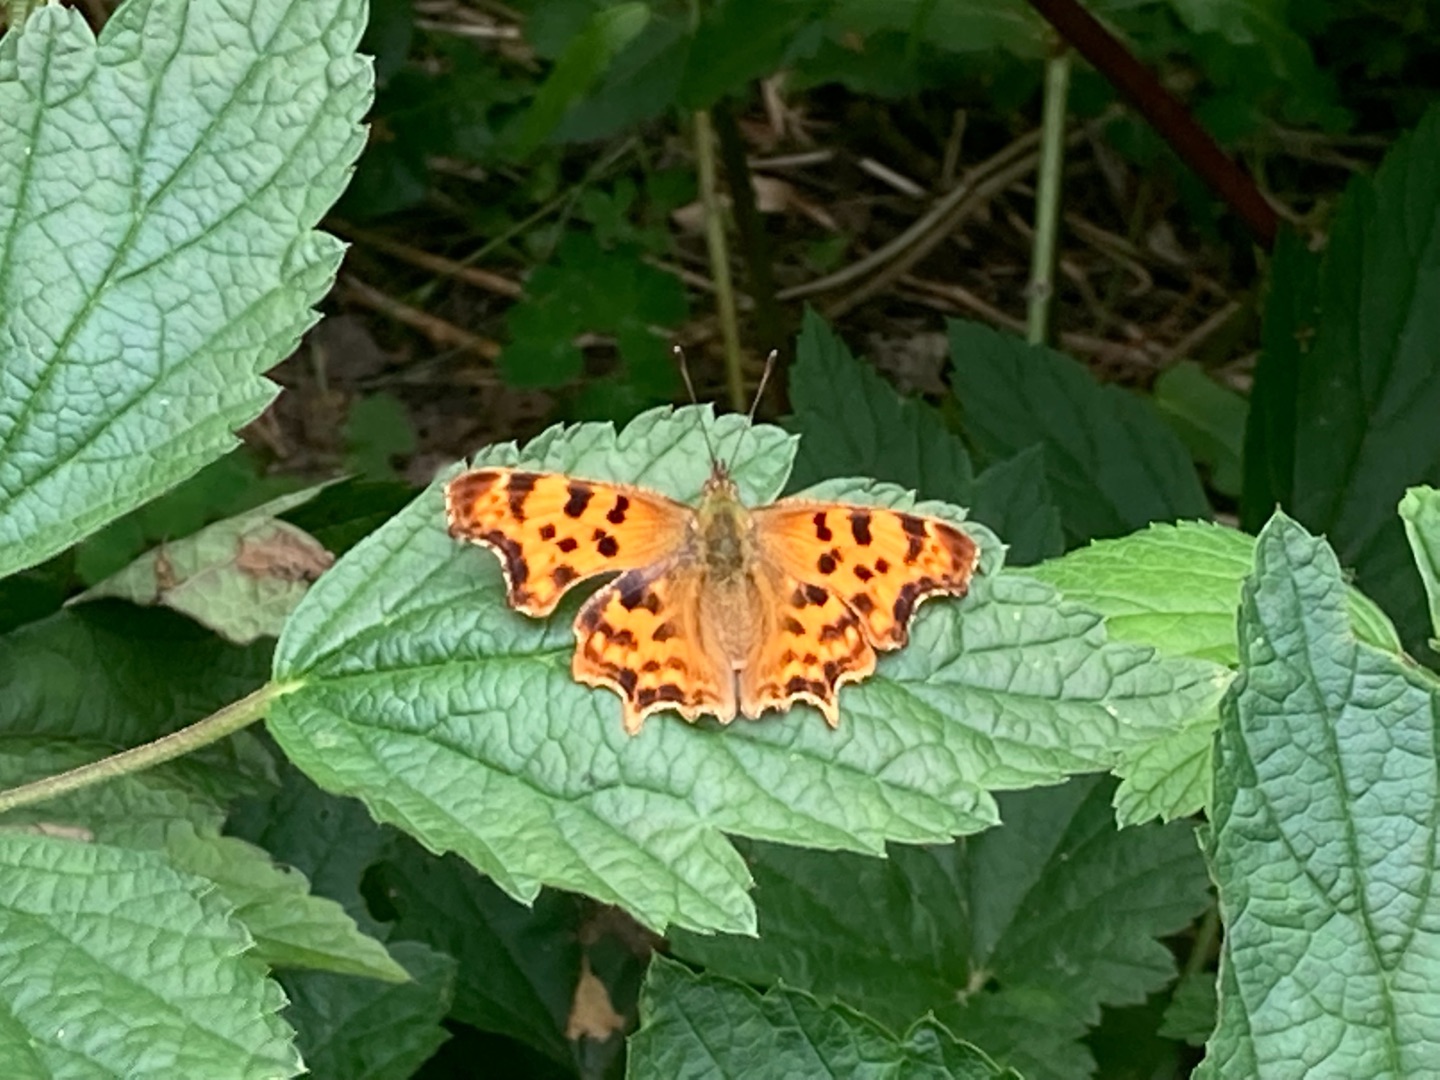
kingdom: Animalia
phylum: Arthropoda
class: Insecta
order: Lepidoptera
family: Nymphalidae
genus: Polygonia
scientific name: Polygonia c-album
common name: Det hvide C
